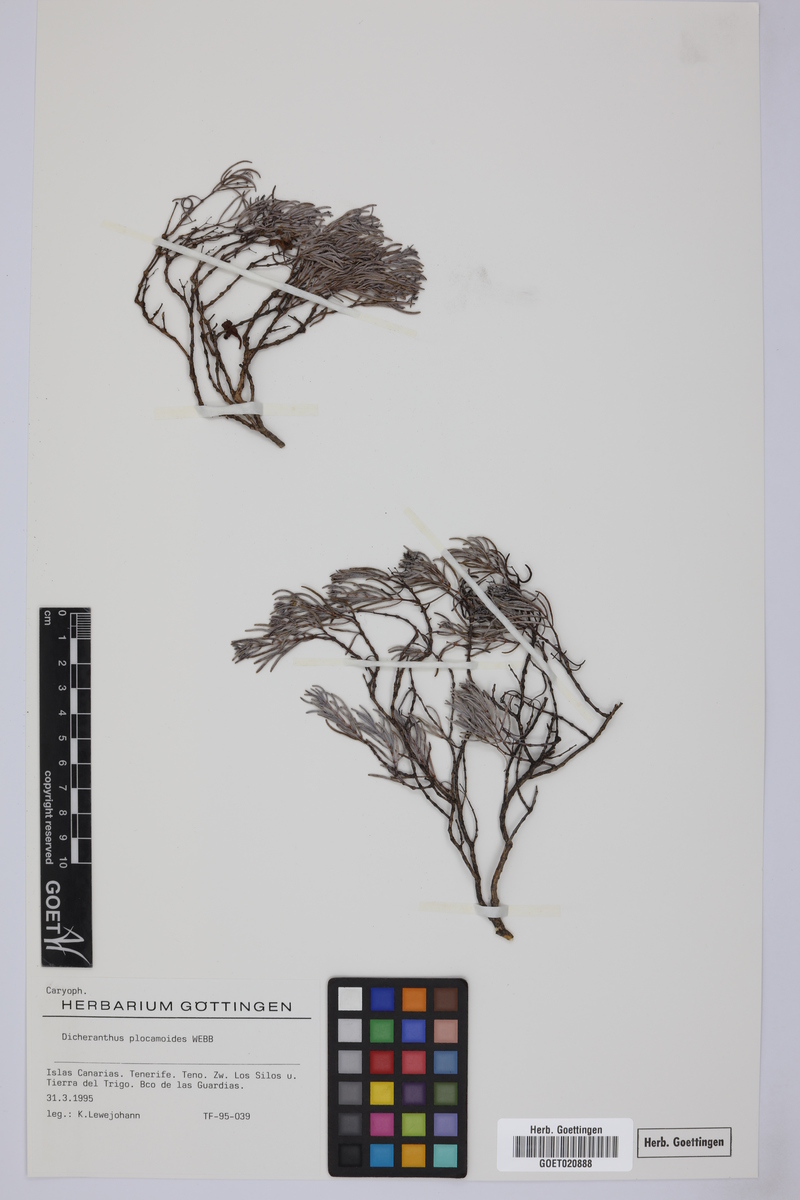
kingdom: Plantae
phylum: Tracheophyta
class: Magnoliopsida
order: Caryophyllales
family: Caryophyllaceae
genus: Dicheranthus
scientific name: Dicheranthus plocamoides
